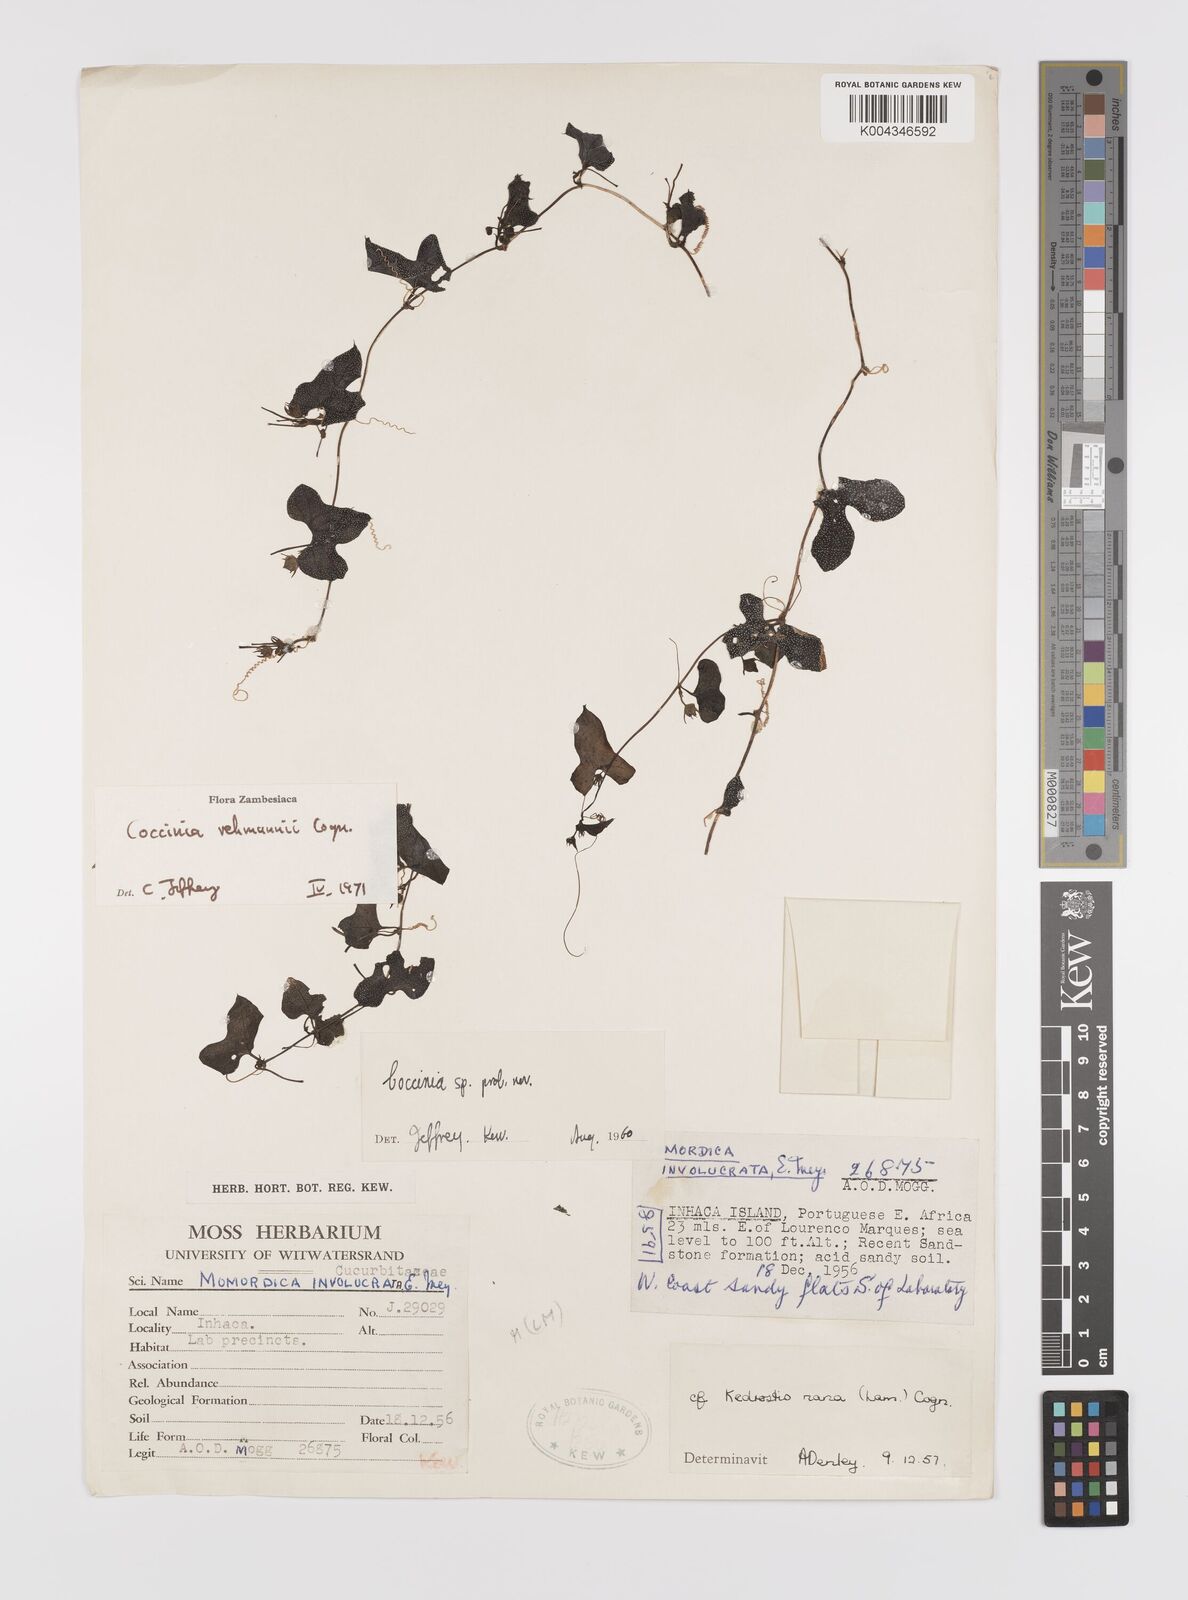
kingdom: Plantae
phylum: Tracheophyta
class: Magnoliopsida
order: Cucurbitales
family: Cucurbitaceae
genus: Coccinia
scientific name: Coccinia rehmannii
